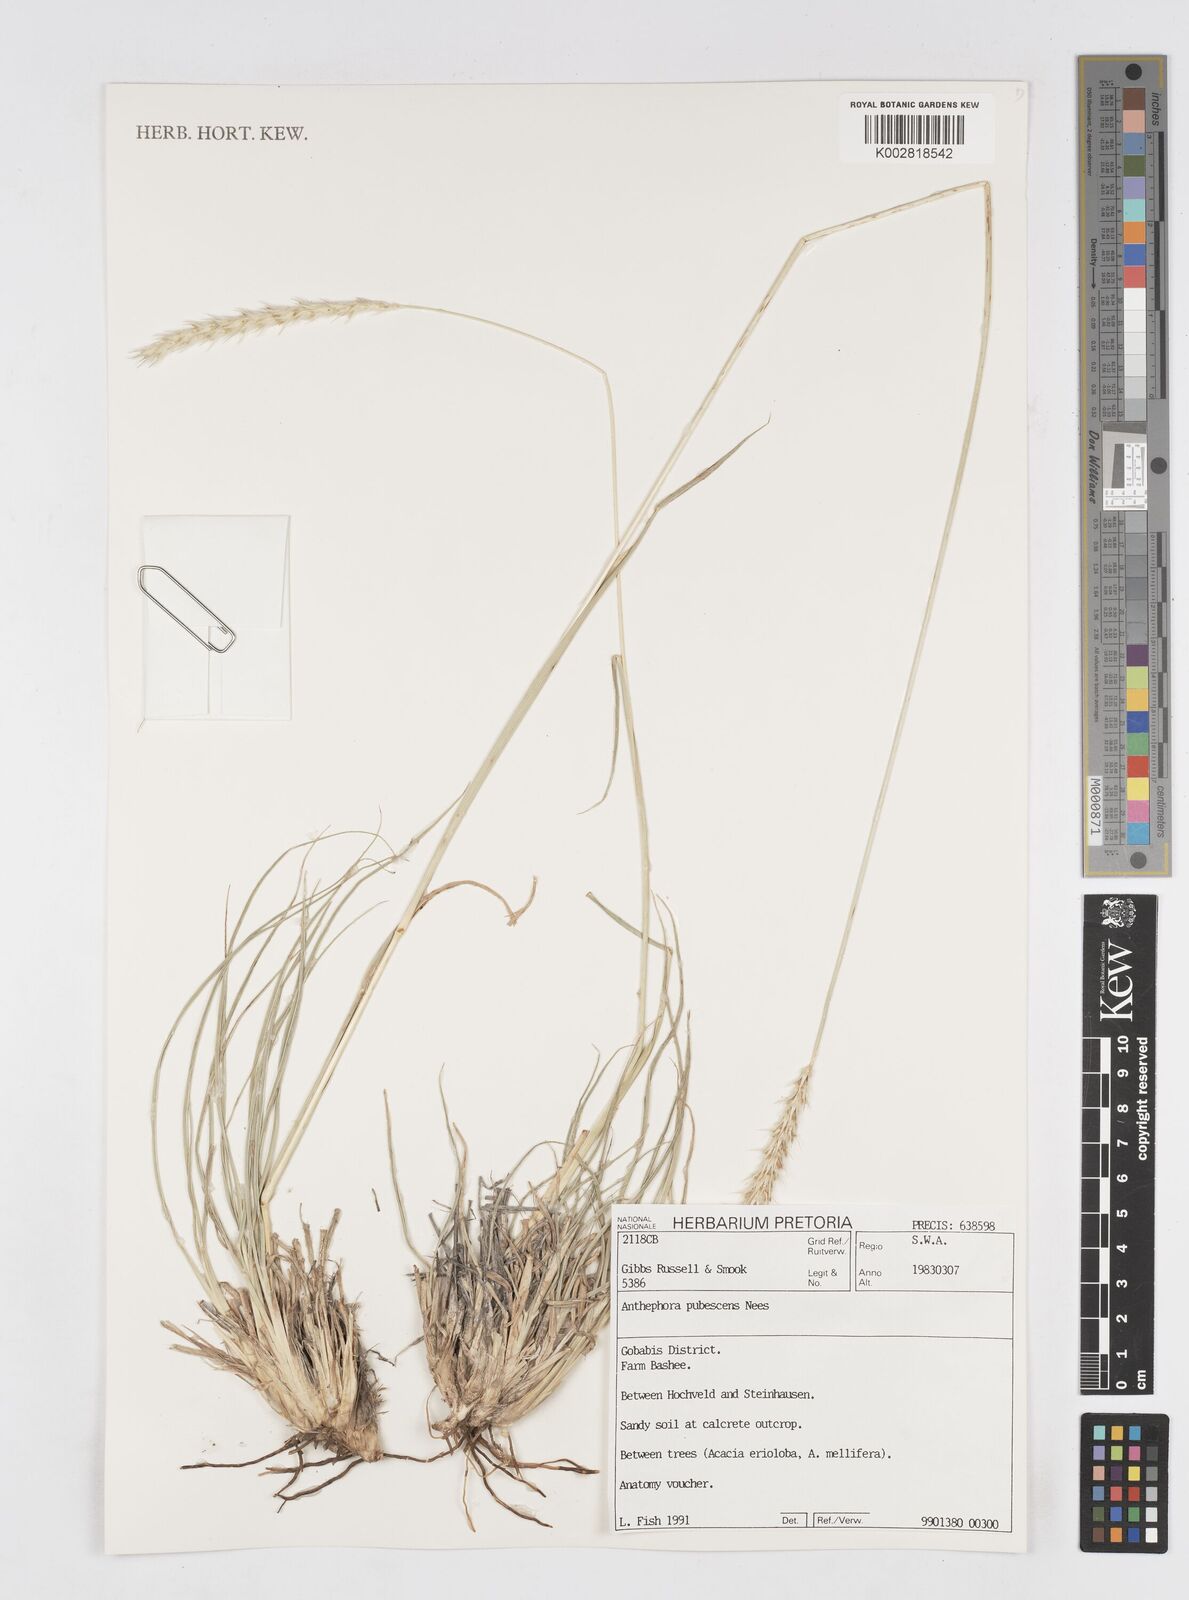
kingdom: Plantae
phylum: Tracheophyta
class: Liliopsida
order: Poales
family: Poaceae
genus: Anthephora
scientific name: Anthephora pubescens
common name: Wool grass
